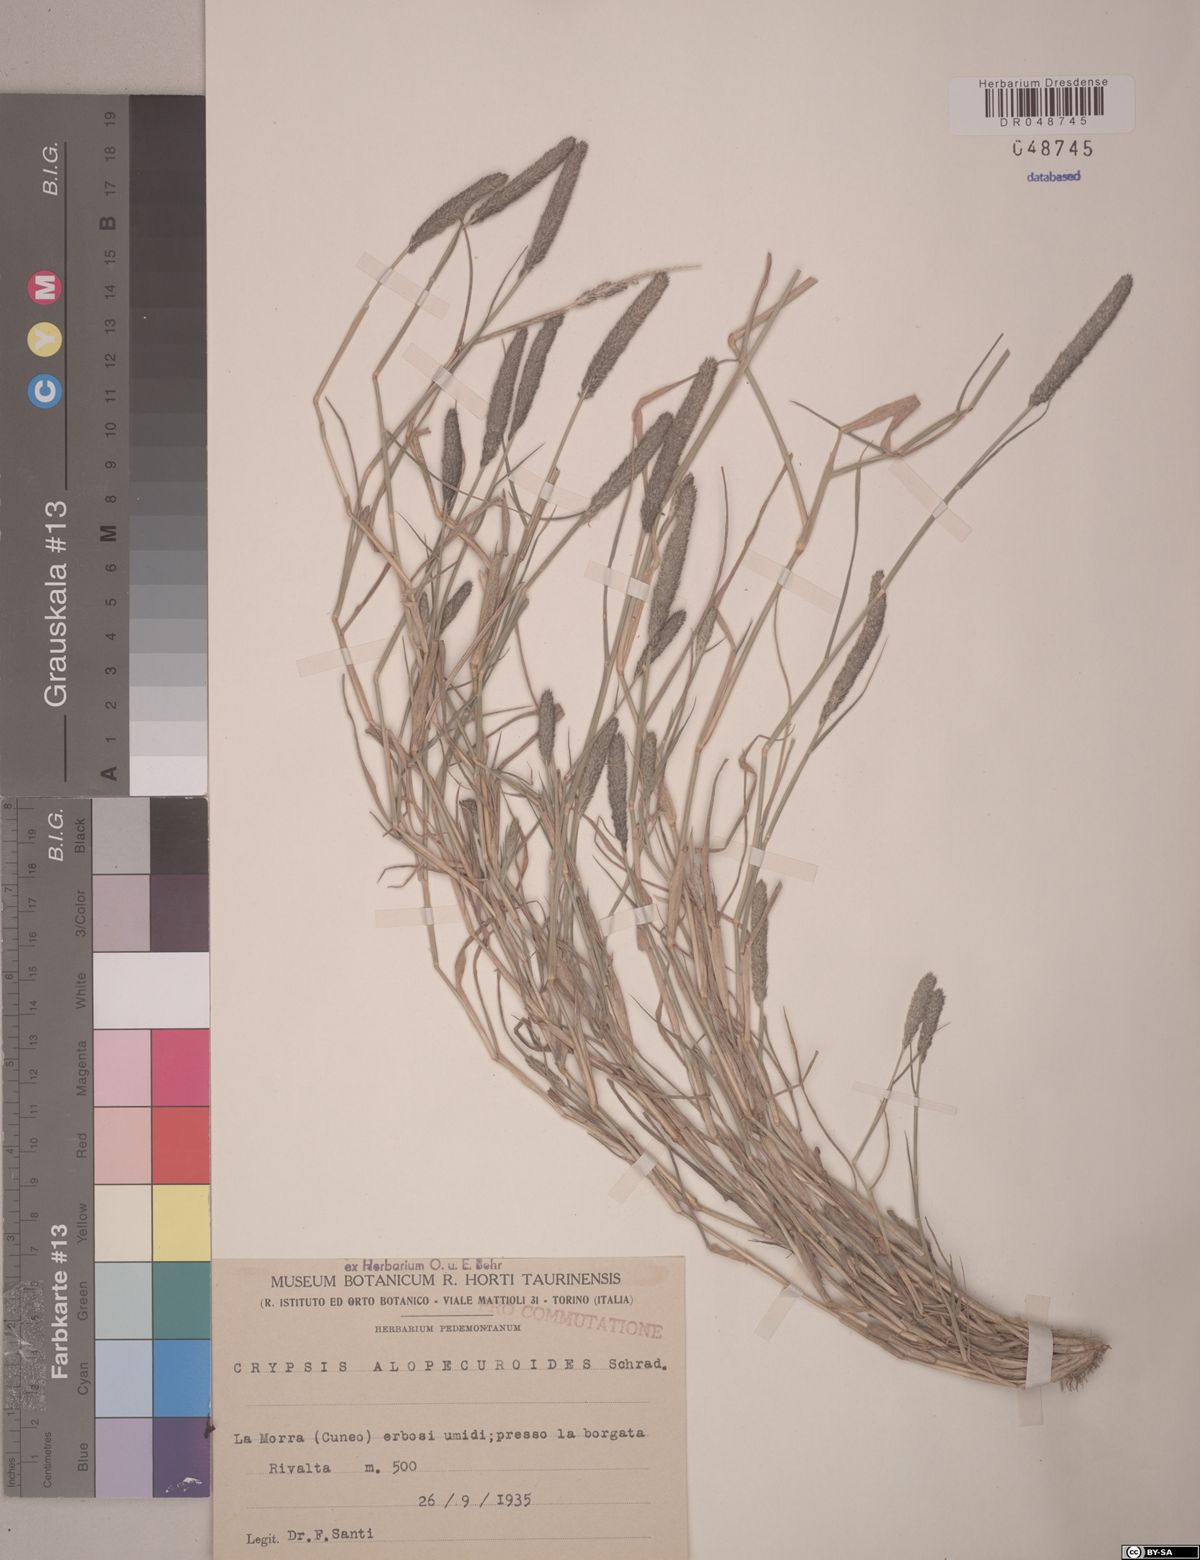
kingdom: Plantae
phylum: Tracheophyta
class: Liliopsida
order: Poales
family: Poaceae
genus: Sporobolus
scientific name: Sporobolus alopecuroides
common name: Foxtail pricklegrass
